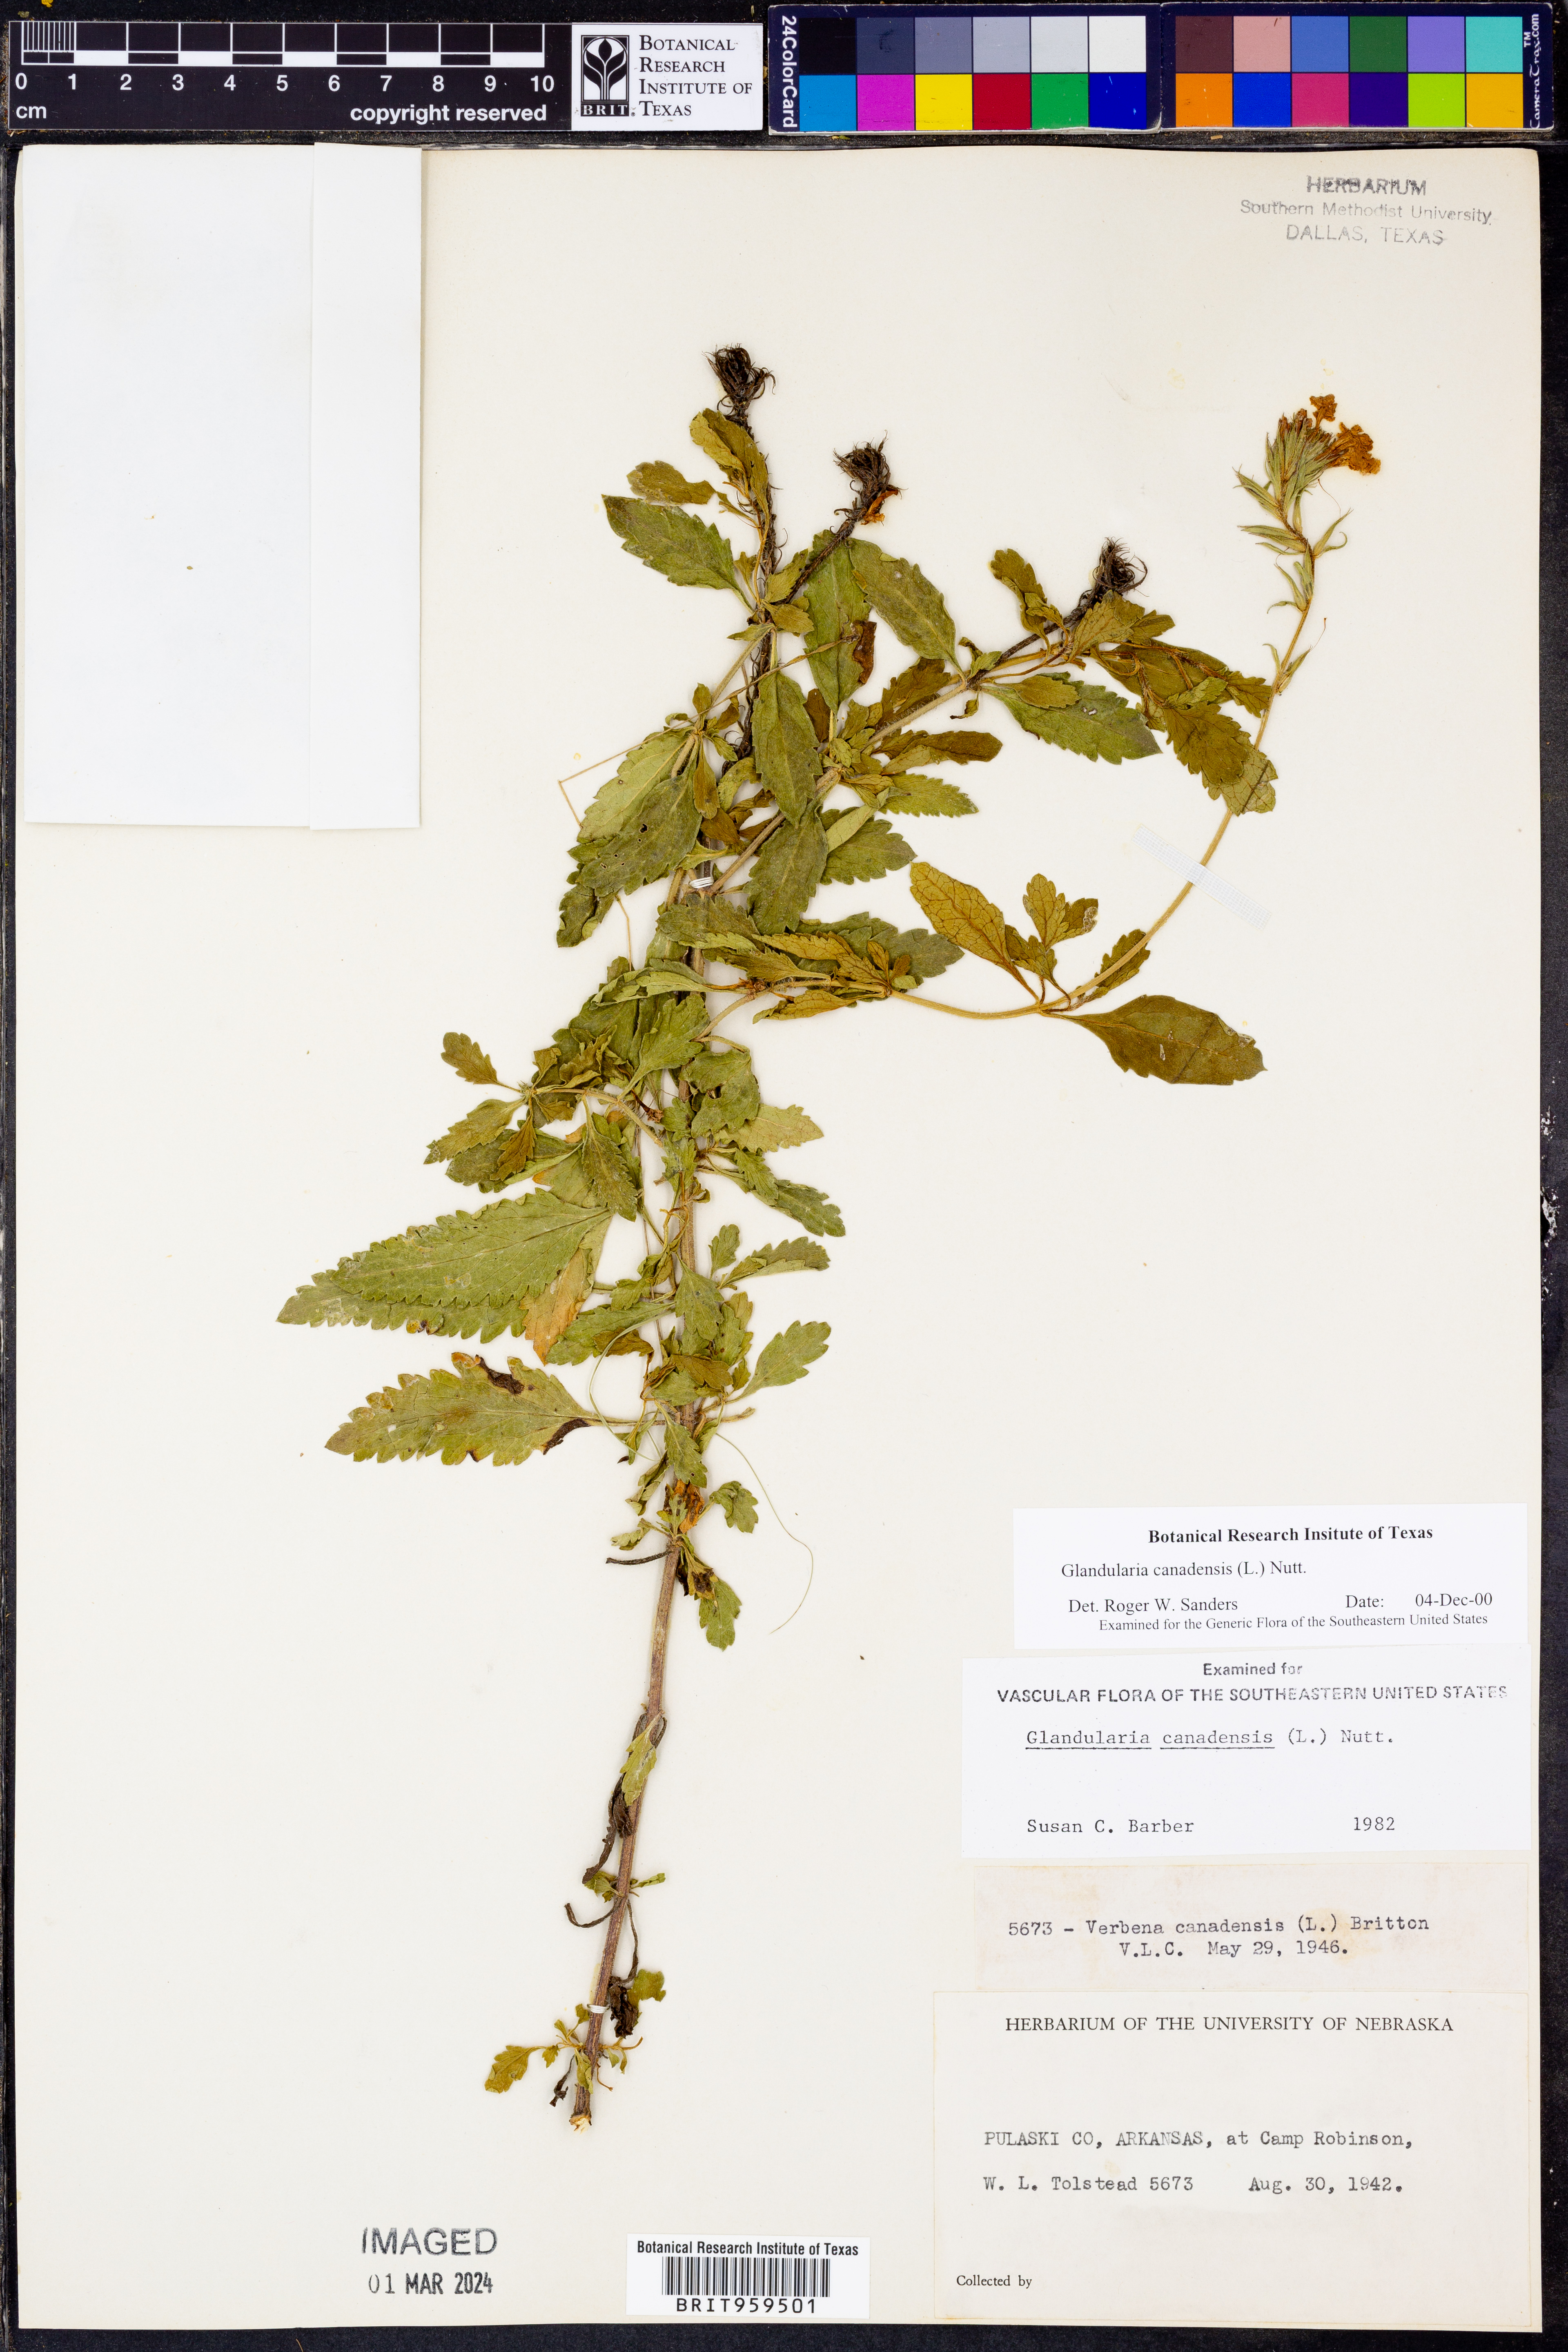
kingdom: Plantae
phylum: Tracheophyta
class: Magnoliopsida
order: Lamiales
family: Verbenaceae
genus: Verbena
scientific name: Verbena canadensis
